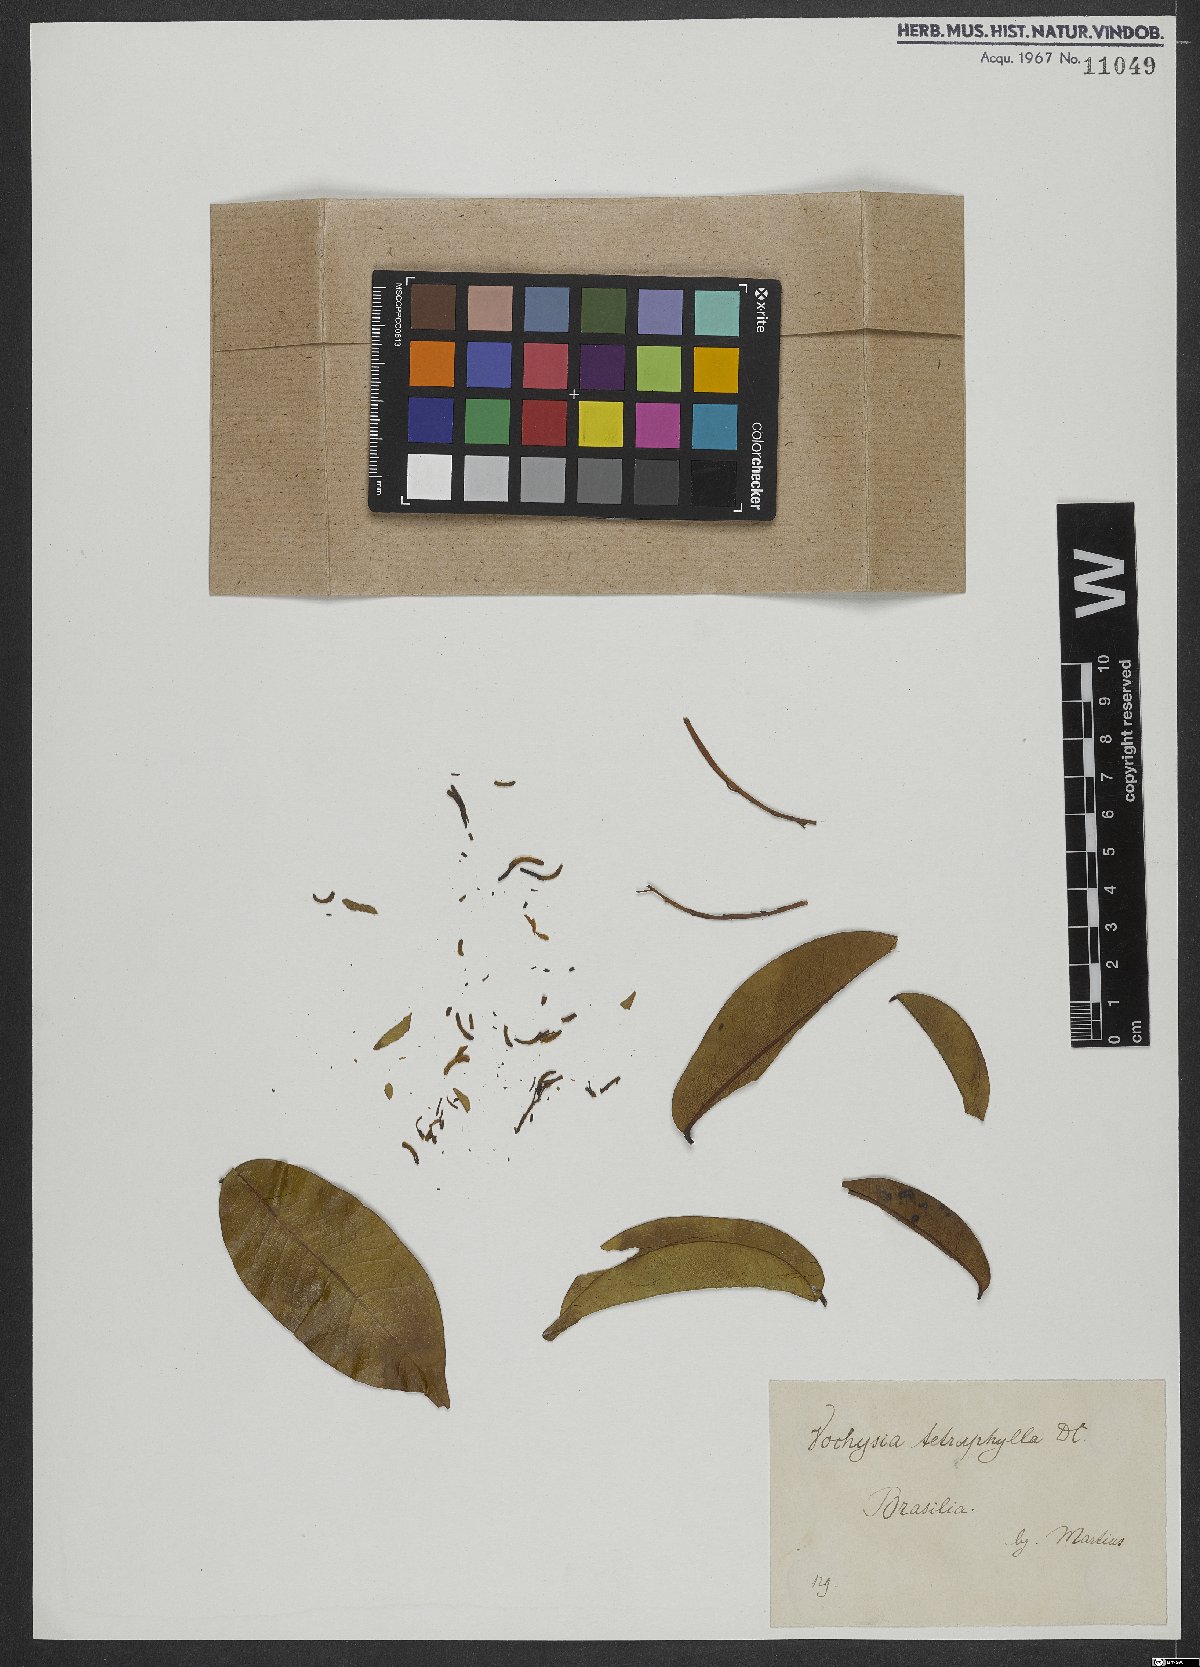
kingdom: Plantae
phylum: Tracheophyta
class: Magnoliopsida
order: Myrtales
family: Vochysiaceae
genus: Vochysia
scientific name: Vochysia tetraphylla
